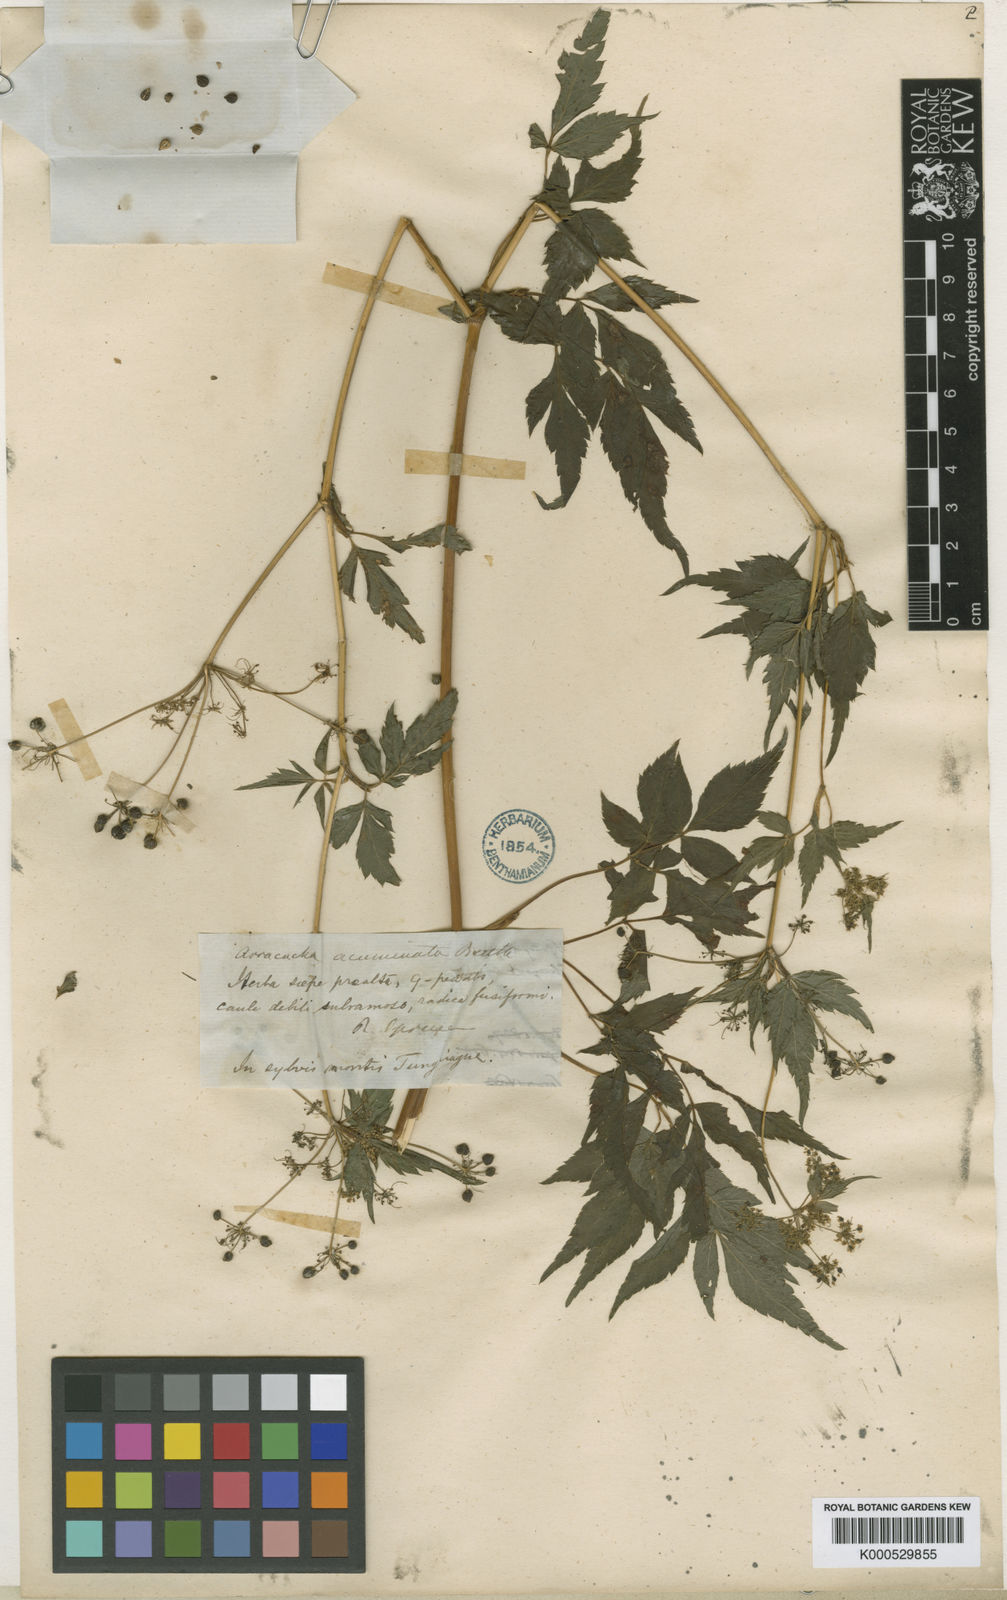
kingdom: Plantae
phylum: Tracheophyta
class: Magnoliopsida
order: Apiales
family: Apiaceae
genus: Neonelsonia
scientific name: Neonelsonia
